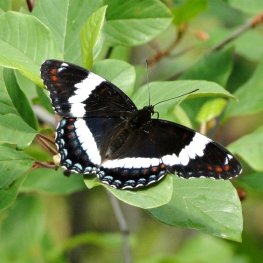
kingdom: Animalia
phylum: Arthropoda
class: Insecta
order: Lepidoptera
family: Nymphalidae
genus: Limenitis
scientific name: Limenitis arthemis
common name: Red-spotted Admiral
